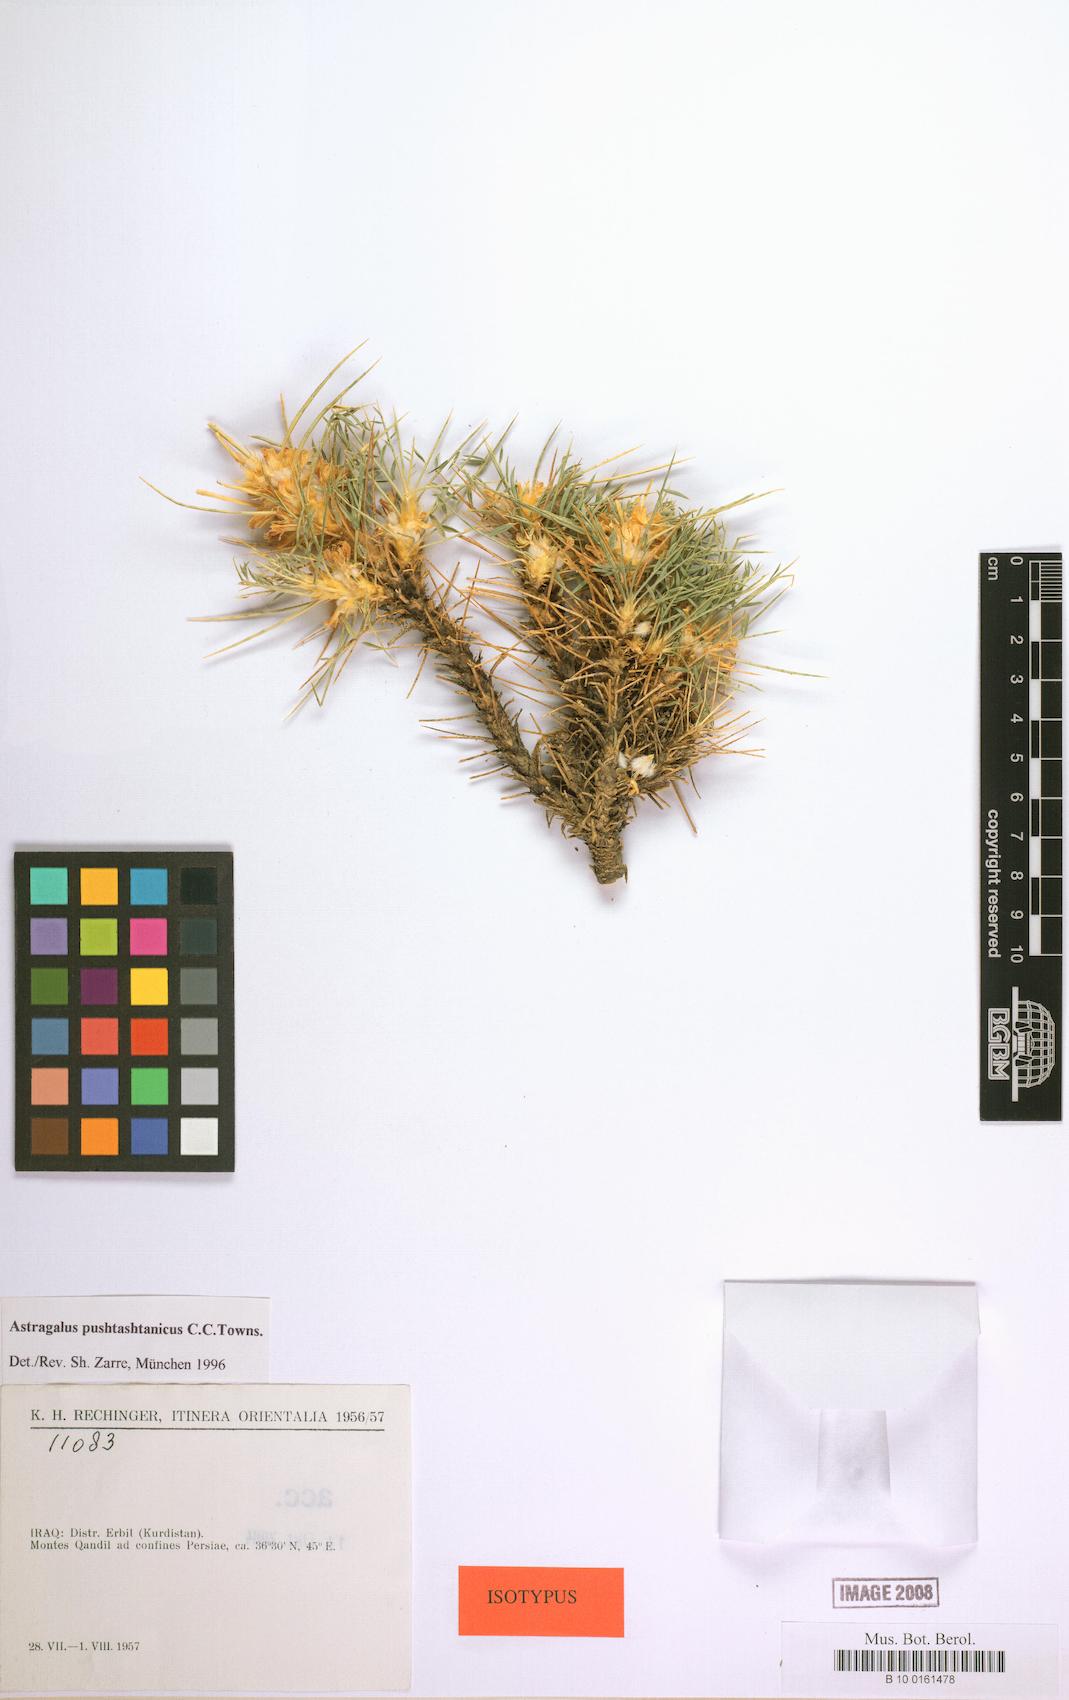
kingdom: Plantae
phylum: Tracheophyta
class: Magnoliopsida
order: Fabales
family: Fabaceae
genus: Astragalus
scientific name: Astragalus pushtashanicus
